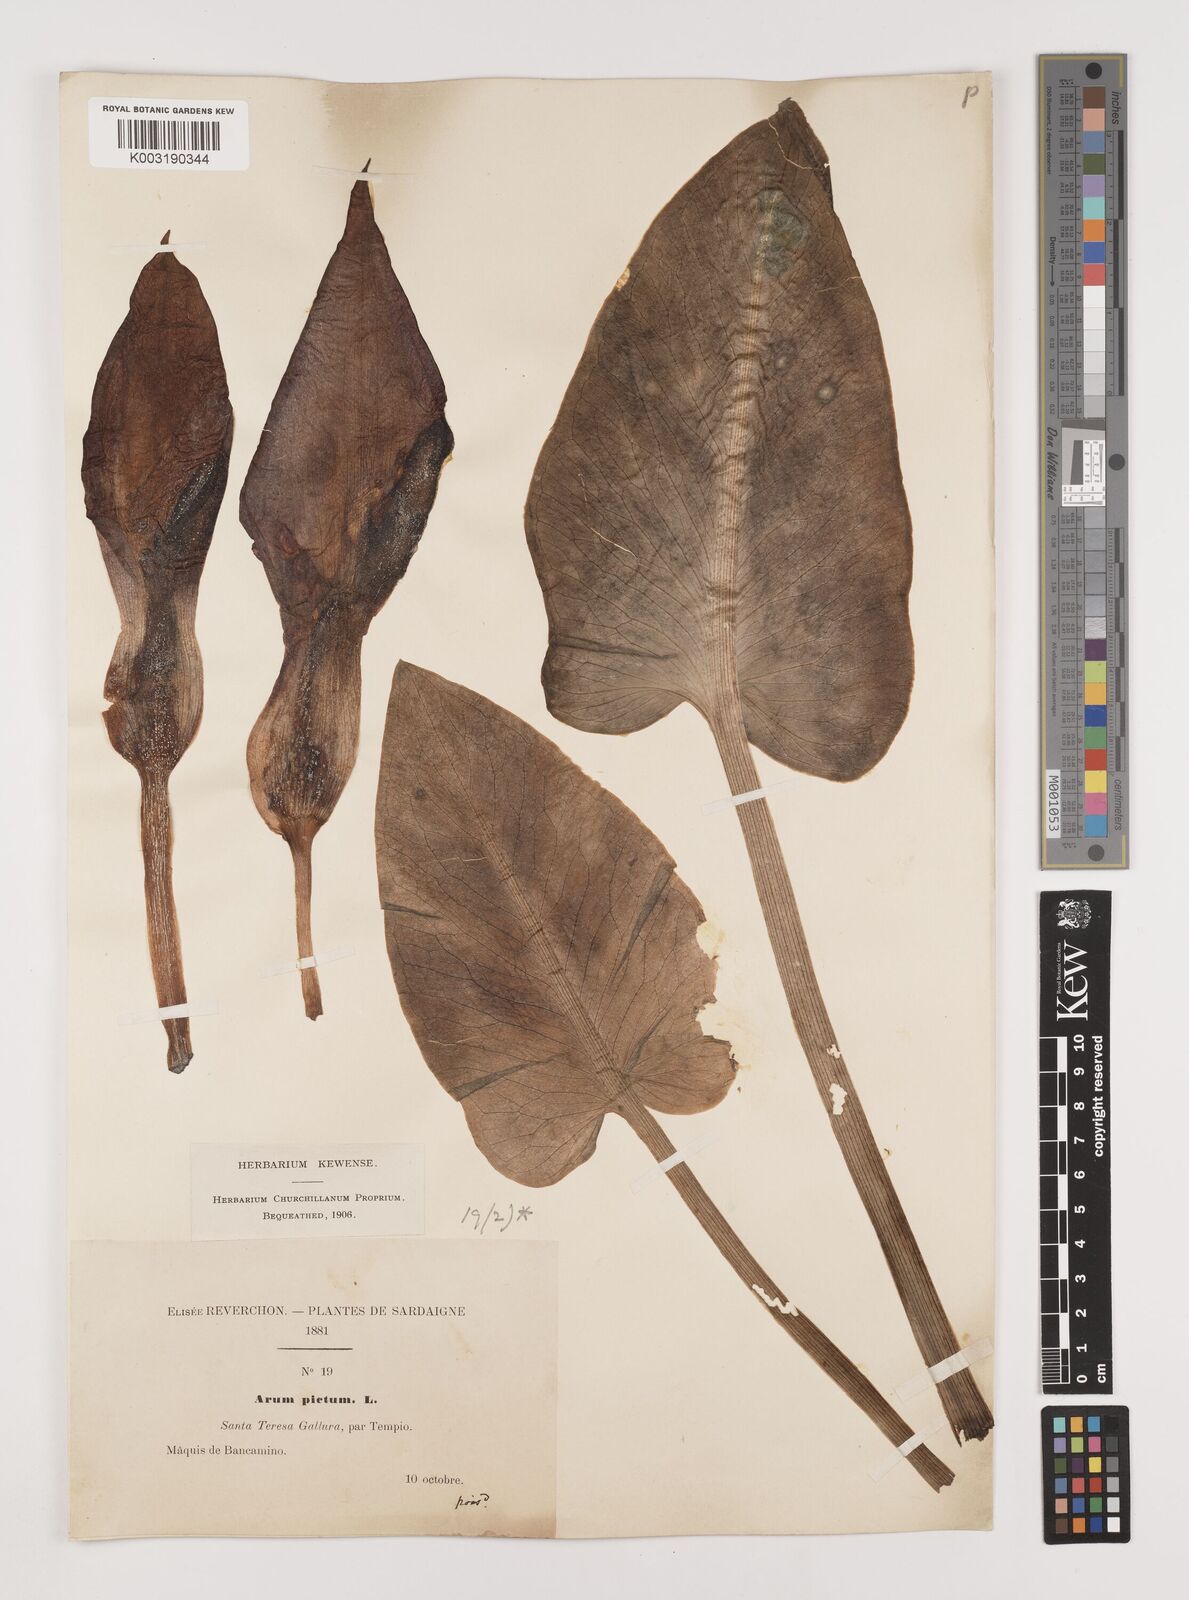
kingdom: Plantae
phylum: Tracheophyta
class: Liliopsida
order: Alismatales
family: Araceae
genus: Arum
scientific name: Arum pictum
